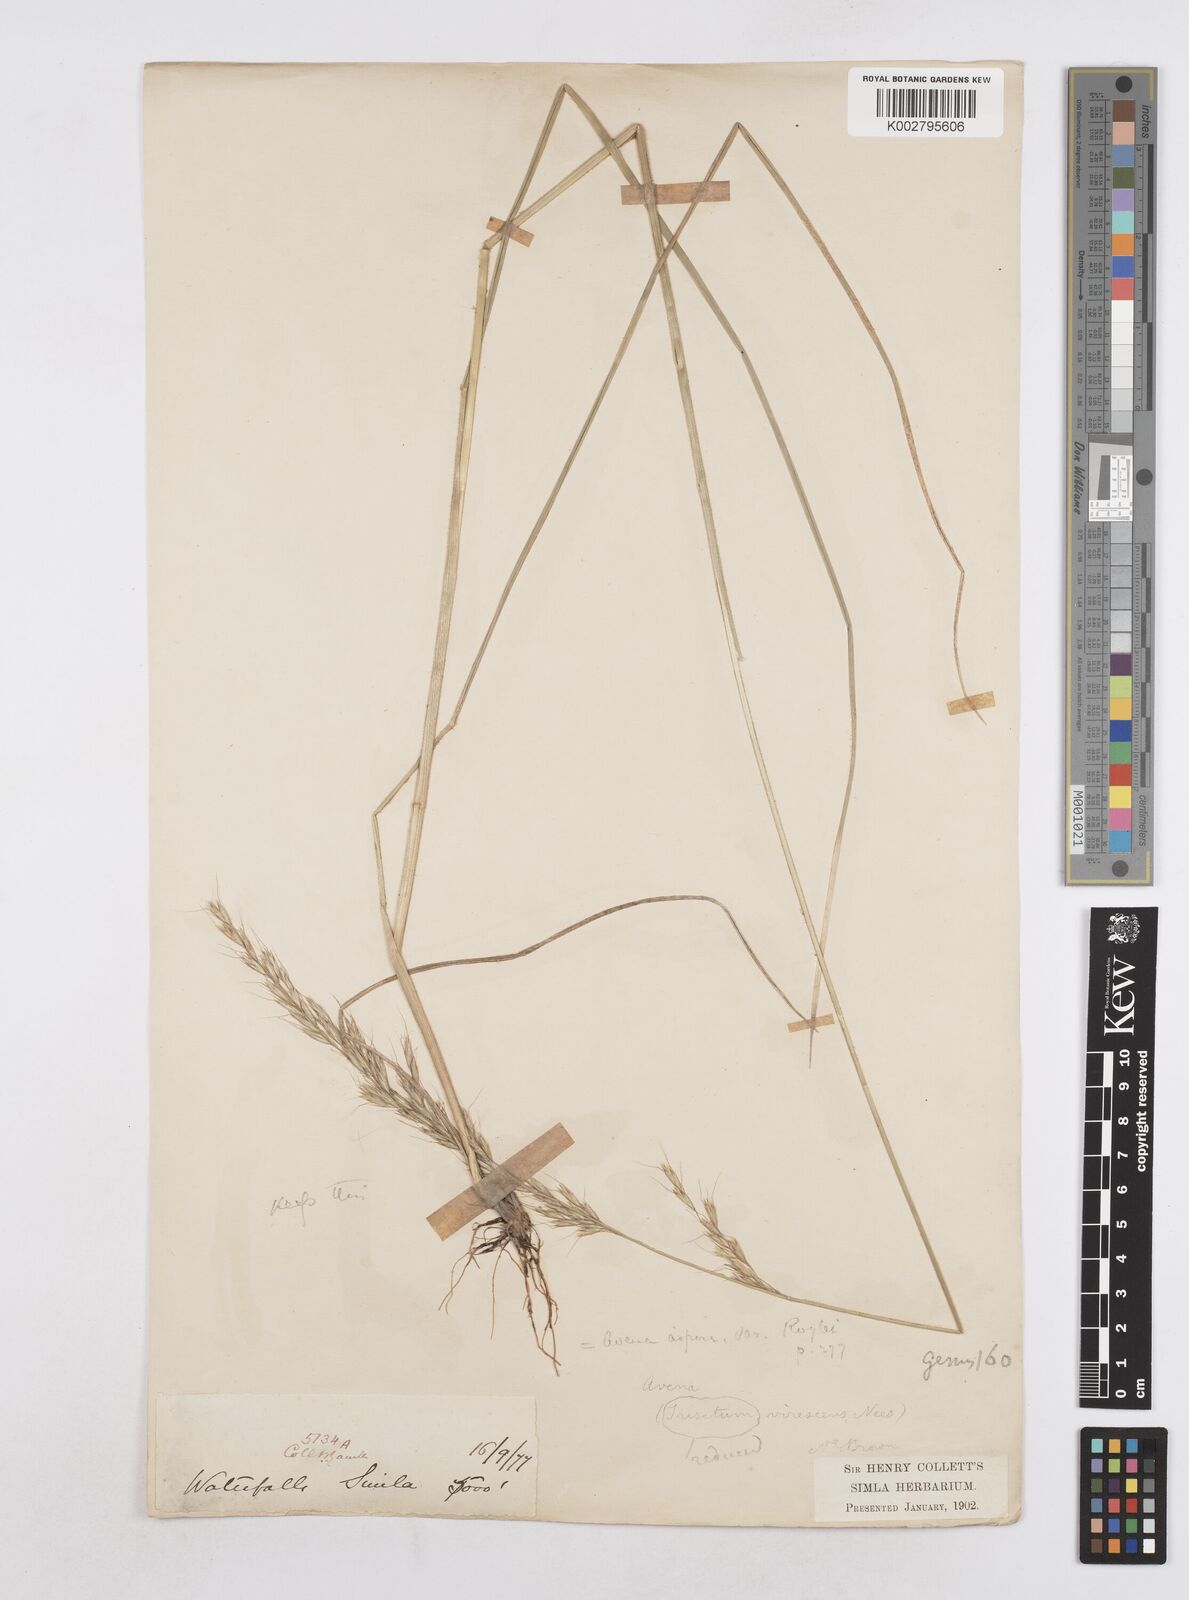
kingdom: Plantae
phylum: Tracheophyta
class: Liliopsida
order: Poales
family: Poaceae
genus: Helictotrichon
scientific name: Helictotrichon
